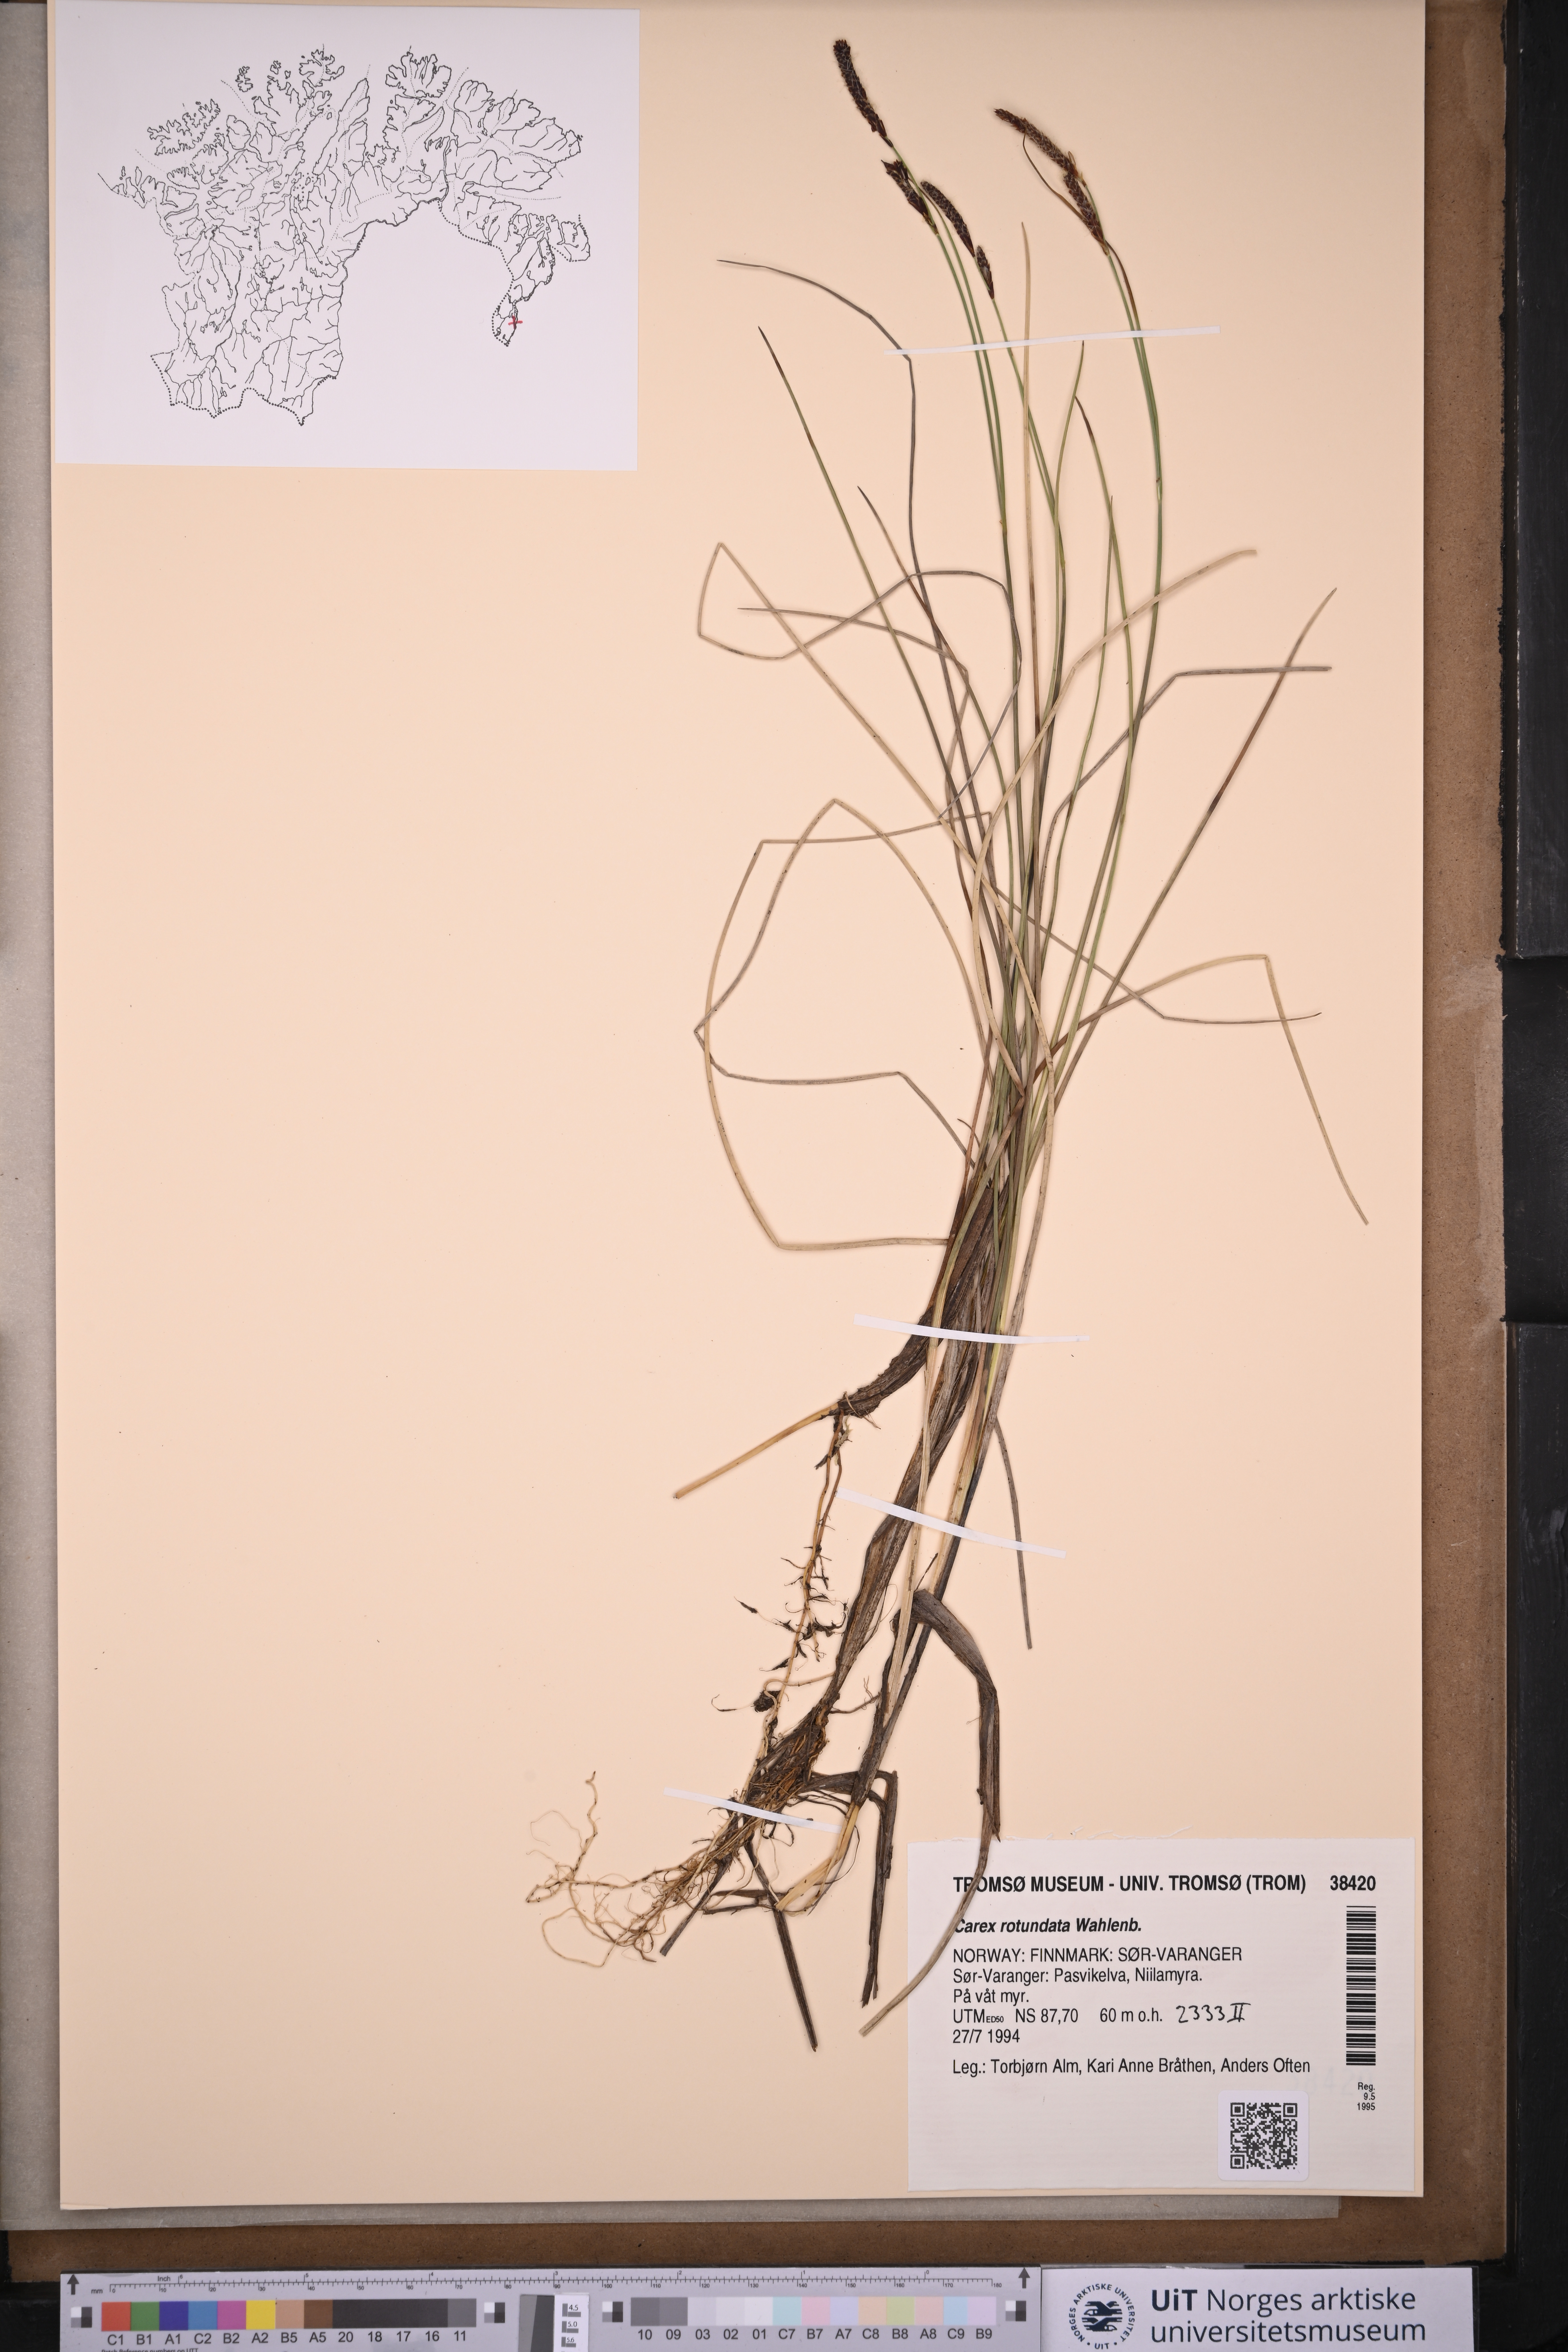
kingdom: Plantae
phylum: Tracheophyta
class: Liliopsida
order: Poales
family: Cyperaceae
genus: Carex
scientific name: Carex rotundata
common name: Round-fruited sedge
